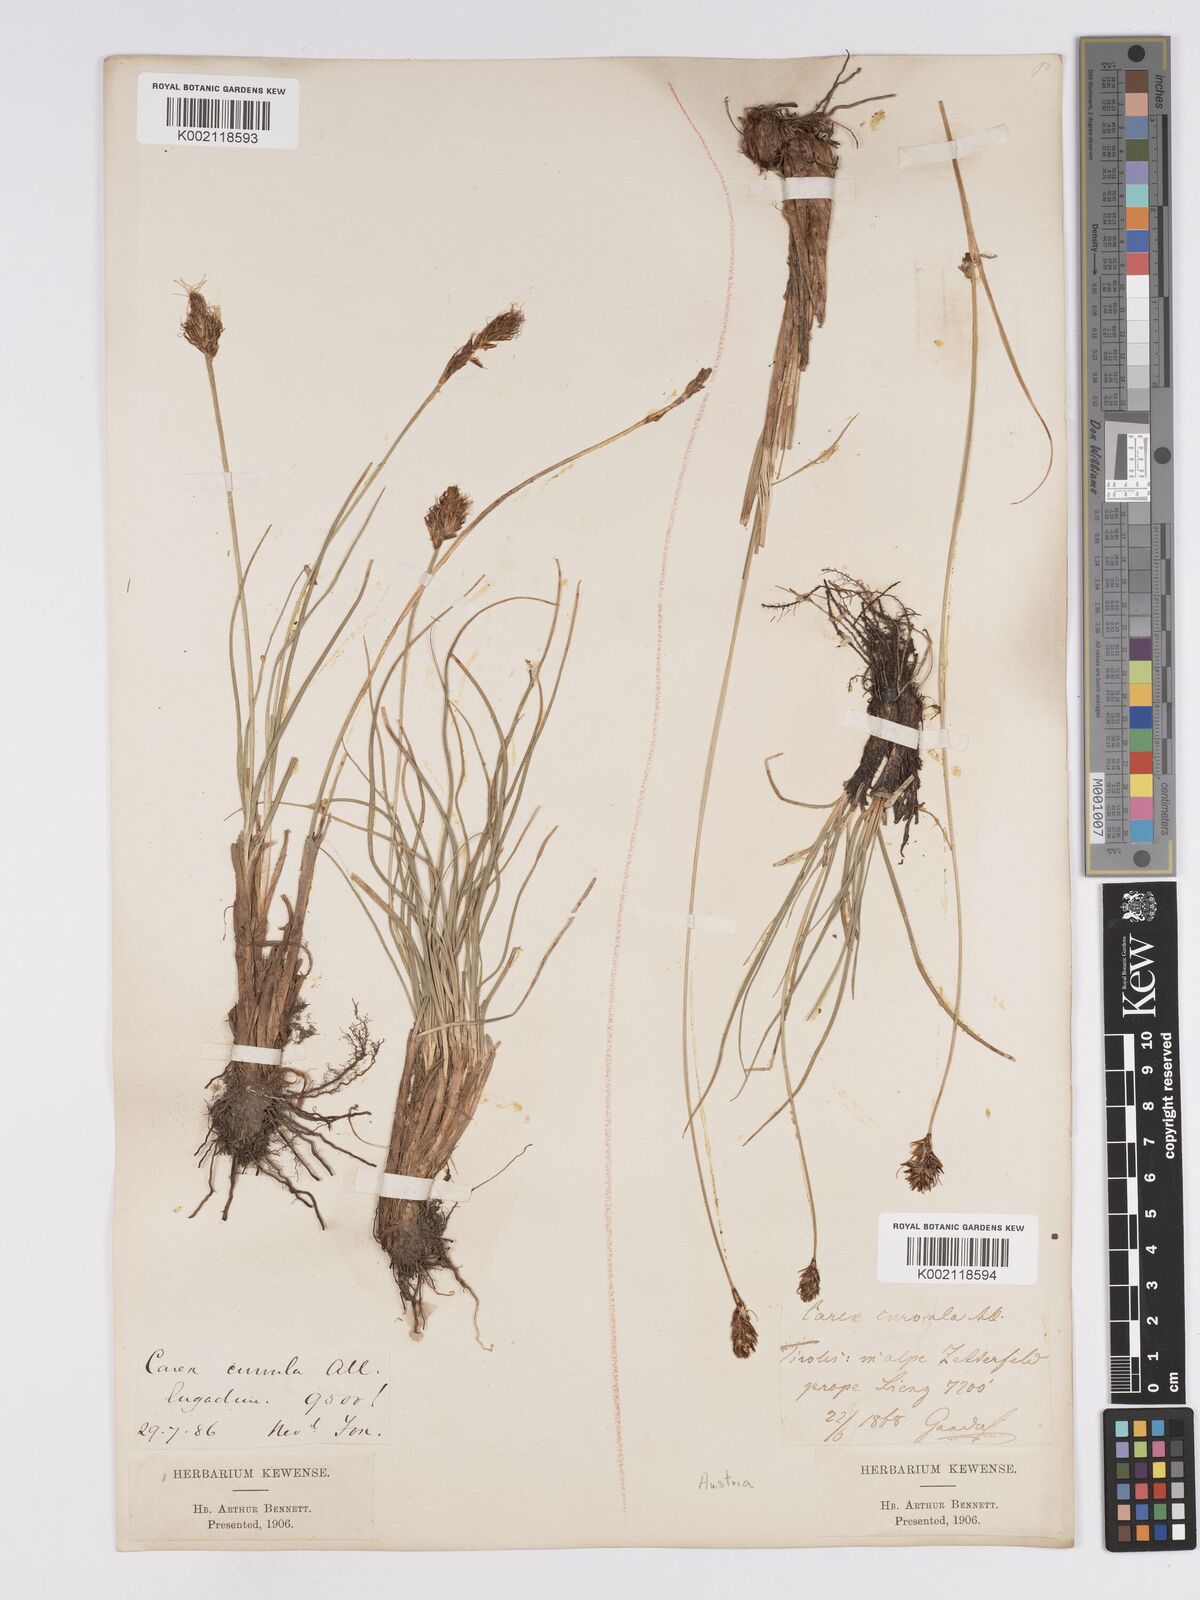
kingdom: Plantae
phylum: Tracheophyta
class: Liliopsida
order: Poales
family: Cyperaceae
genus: Carex
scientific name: Carex curvula
